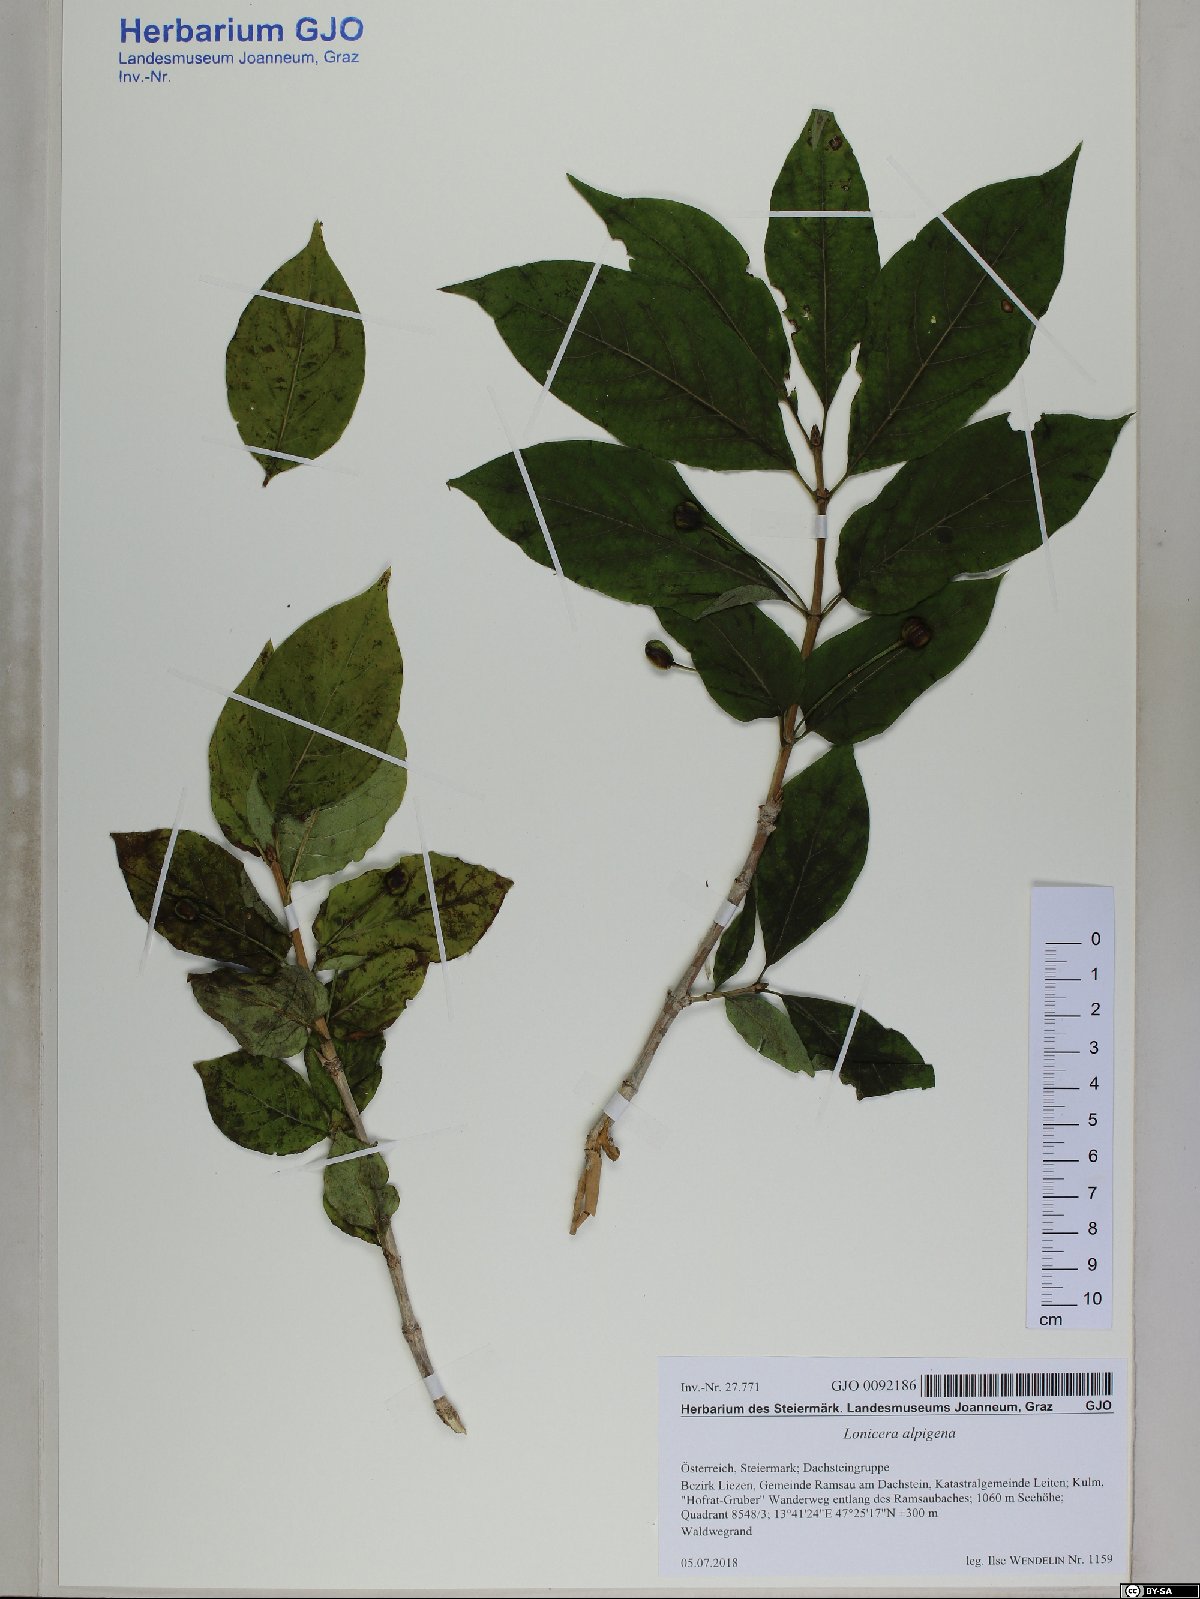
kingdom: Plantae
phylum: Tracheophyta
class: Magnoliopsida
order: Dipsacales
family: Caprifoliaceae
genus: Lonicera
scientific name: Lonicera alpigena
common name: Alpine honeysuckle
